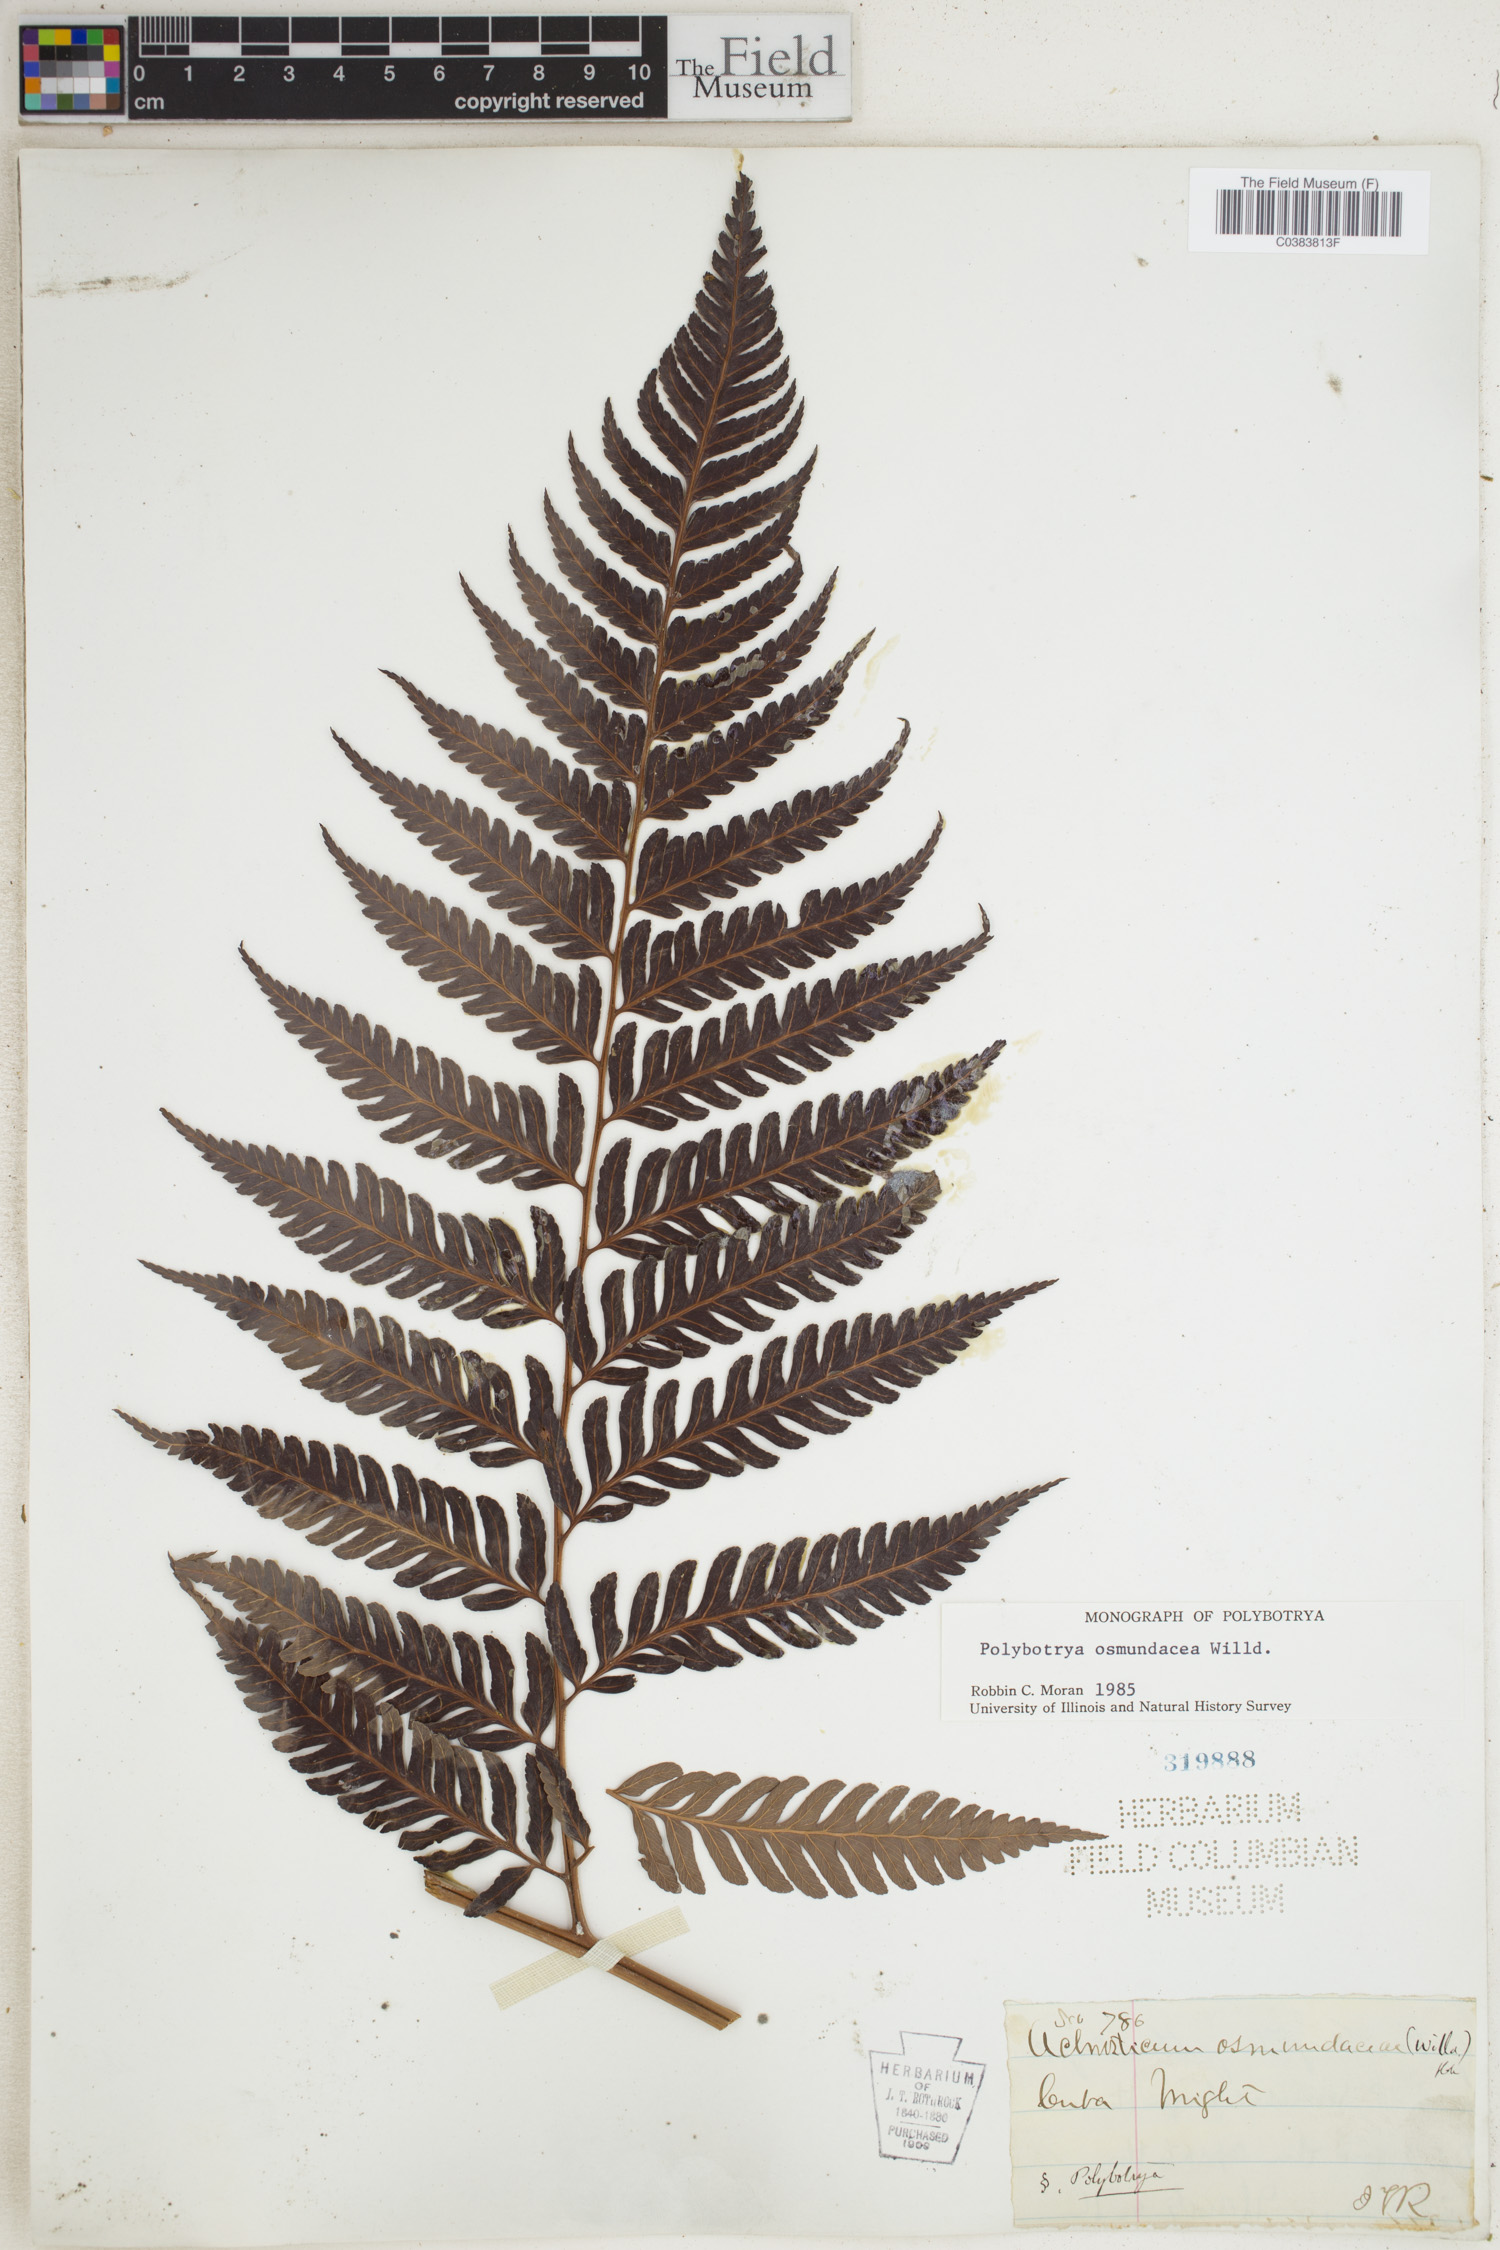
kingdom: Plantae
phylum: Tracheophyta
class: Polypodiopsida
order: Polypodiales
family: Dryopteridaceae
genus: Polybotrya
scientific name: Polybotrya osmundacea
